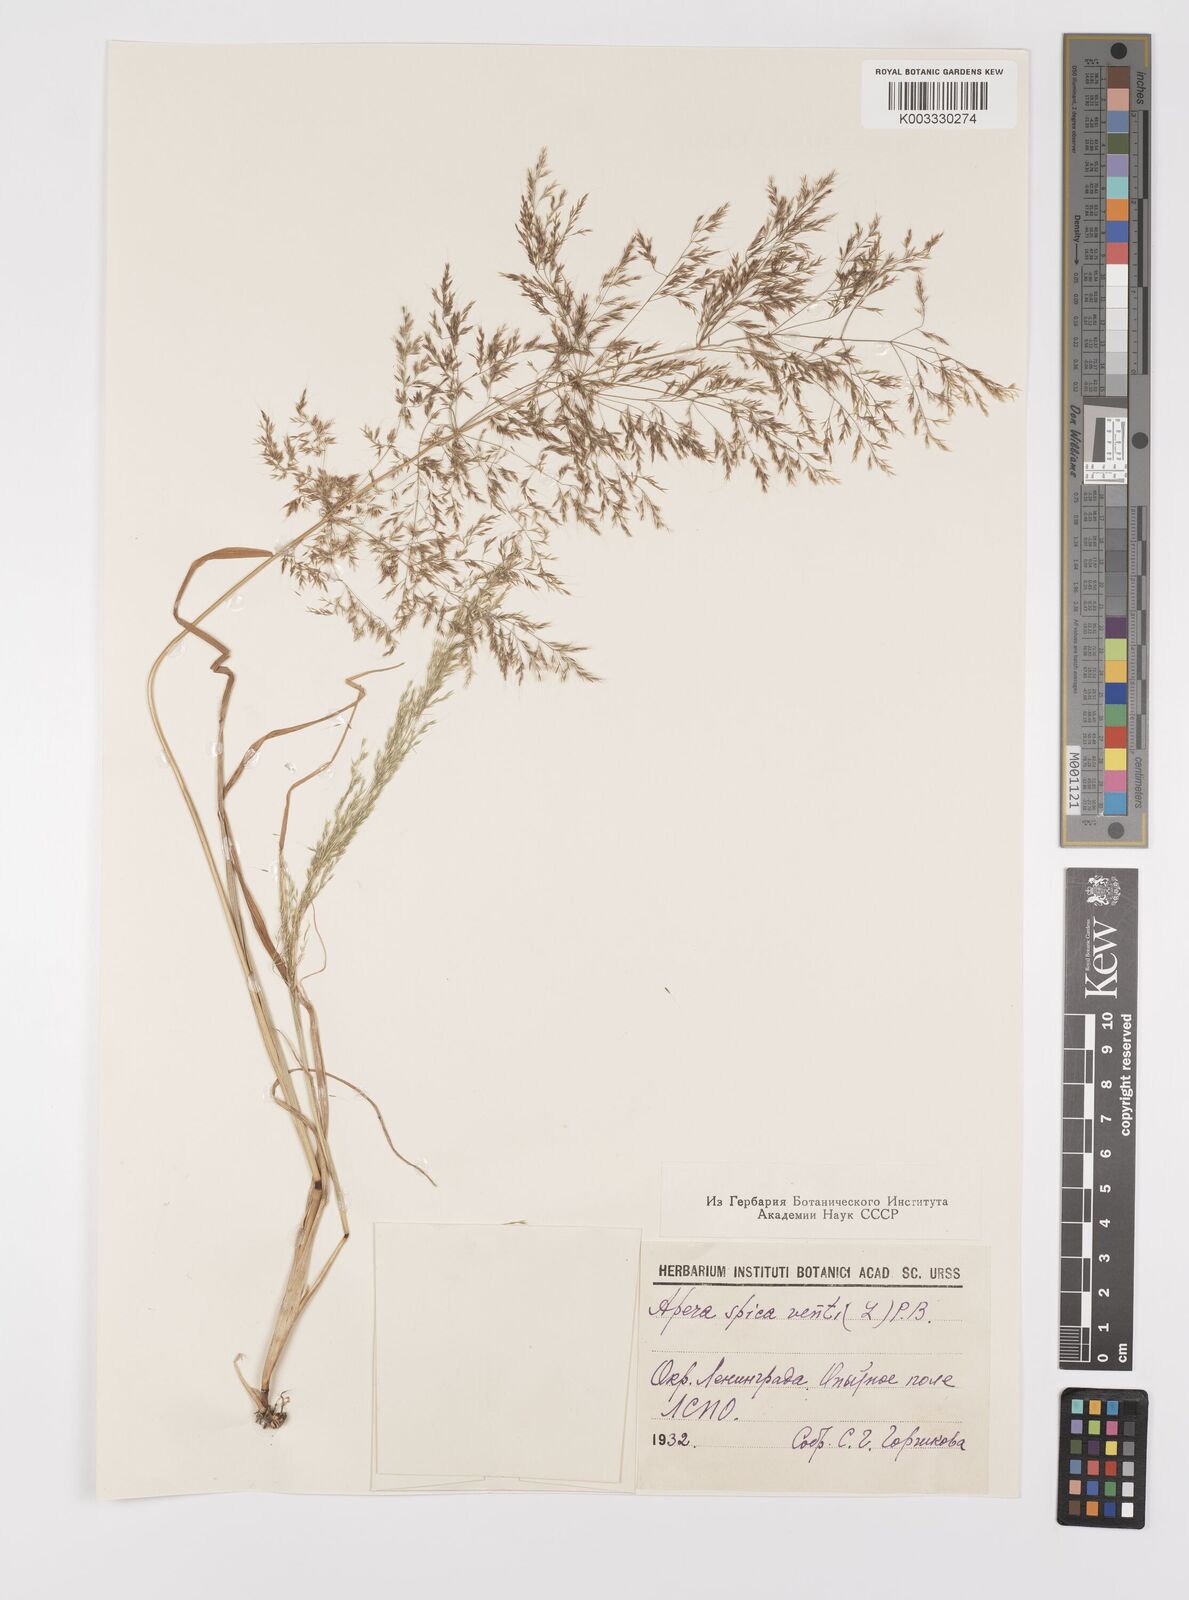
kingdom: Plantae
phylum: Tracheophyta
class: Liliopsida
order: Poales
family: Poaceae
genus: Apera
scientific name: Apera spica-venti
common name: Loose silky-bent
